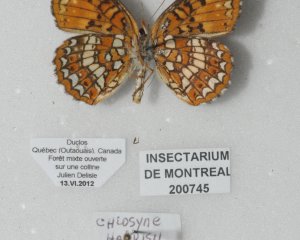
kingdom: Animalia
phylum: Arthropoda
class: Insecta
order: Lepidoptera
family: Nymphalidae
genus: Chlosyne
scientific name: Chlosyne harrisii
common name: Harris's Checkerspot
